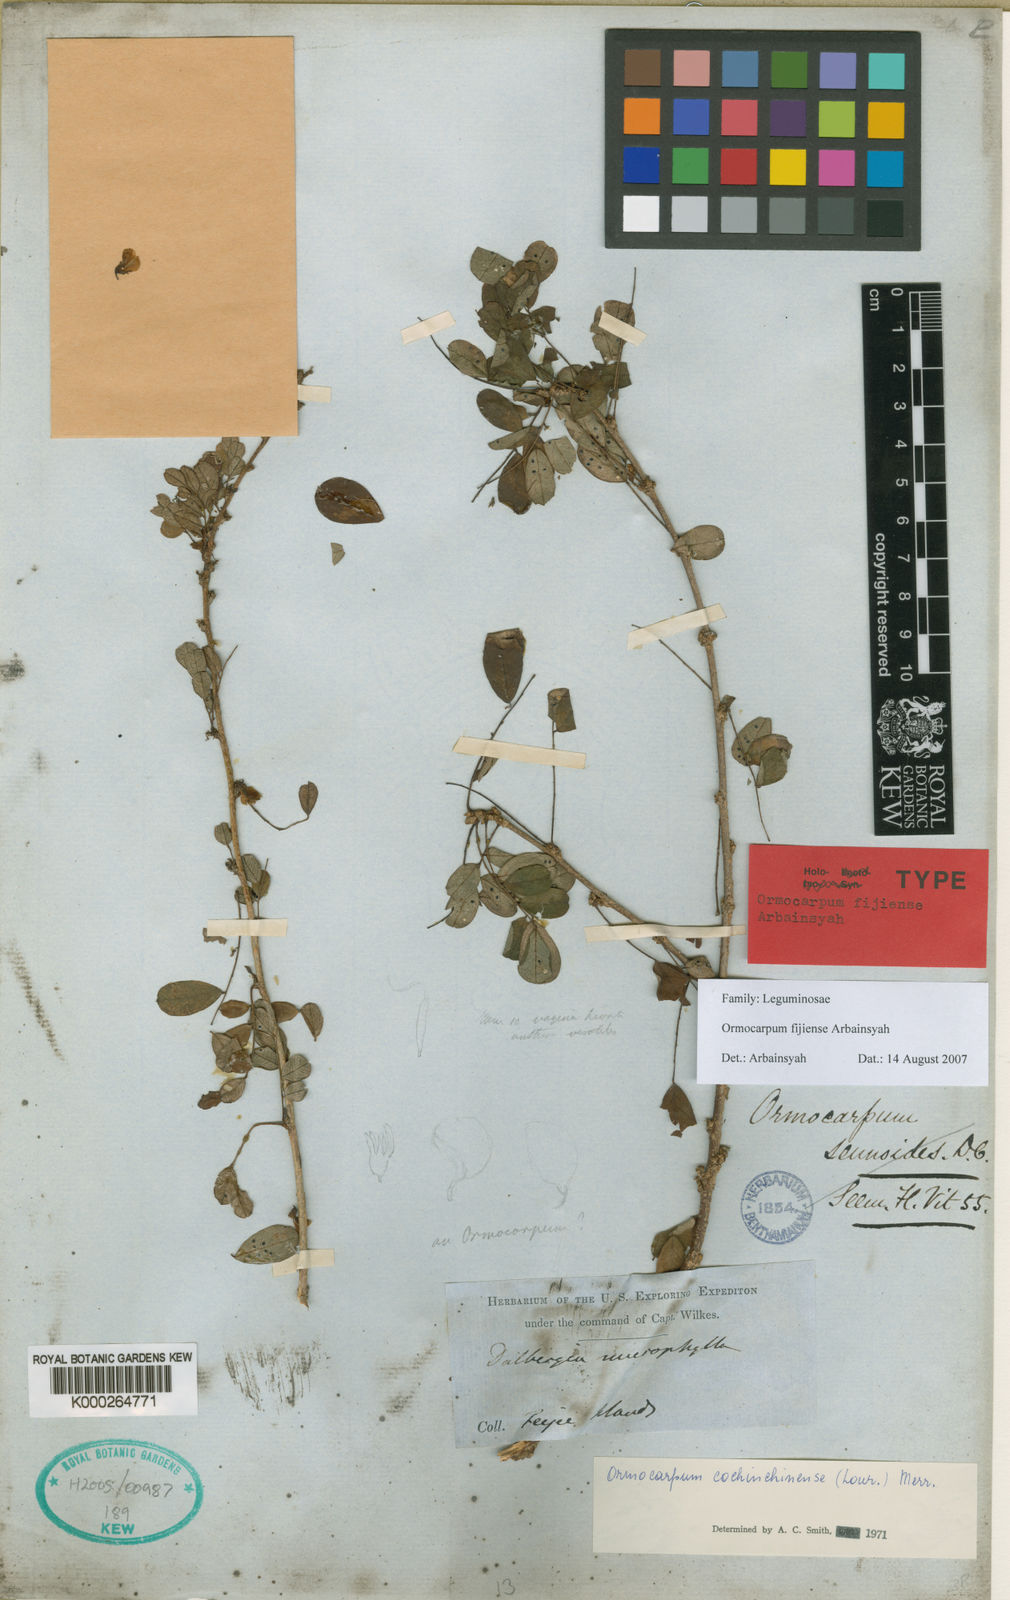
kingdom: Plantae
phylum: Tracheophyta
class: Magnoliopsida
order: Fabales
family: Fabaceae
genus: Ormocarpum
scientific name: Ormocarpum
